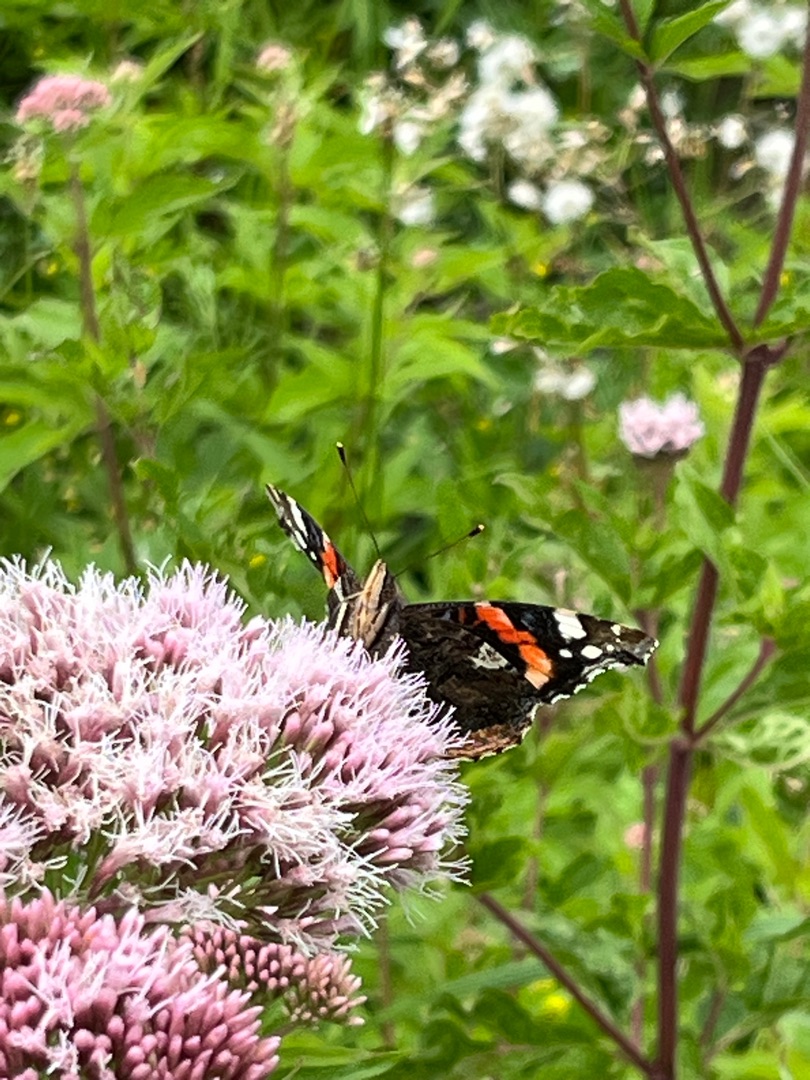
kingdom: Animalia
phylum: Arthropoda
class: Insecta
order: Lepidoptera
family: Nymphalidae
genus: Vanessa
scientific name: Vanessa atalanta
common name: Admiral
